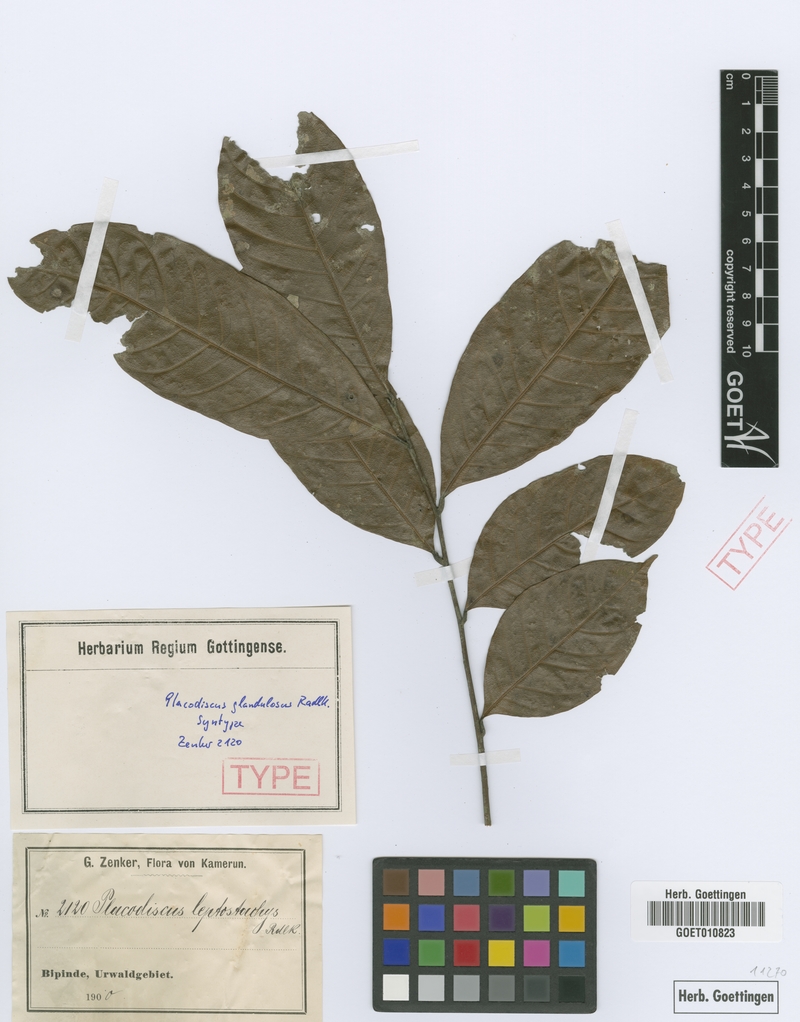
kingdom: Plantae
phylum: Tracheophyta
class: Magnoliopsida
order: Sapindales
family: Sapindaceae
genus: Placodiscus
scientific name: Placodiscus glandulosus
